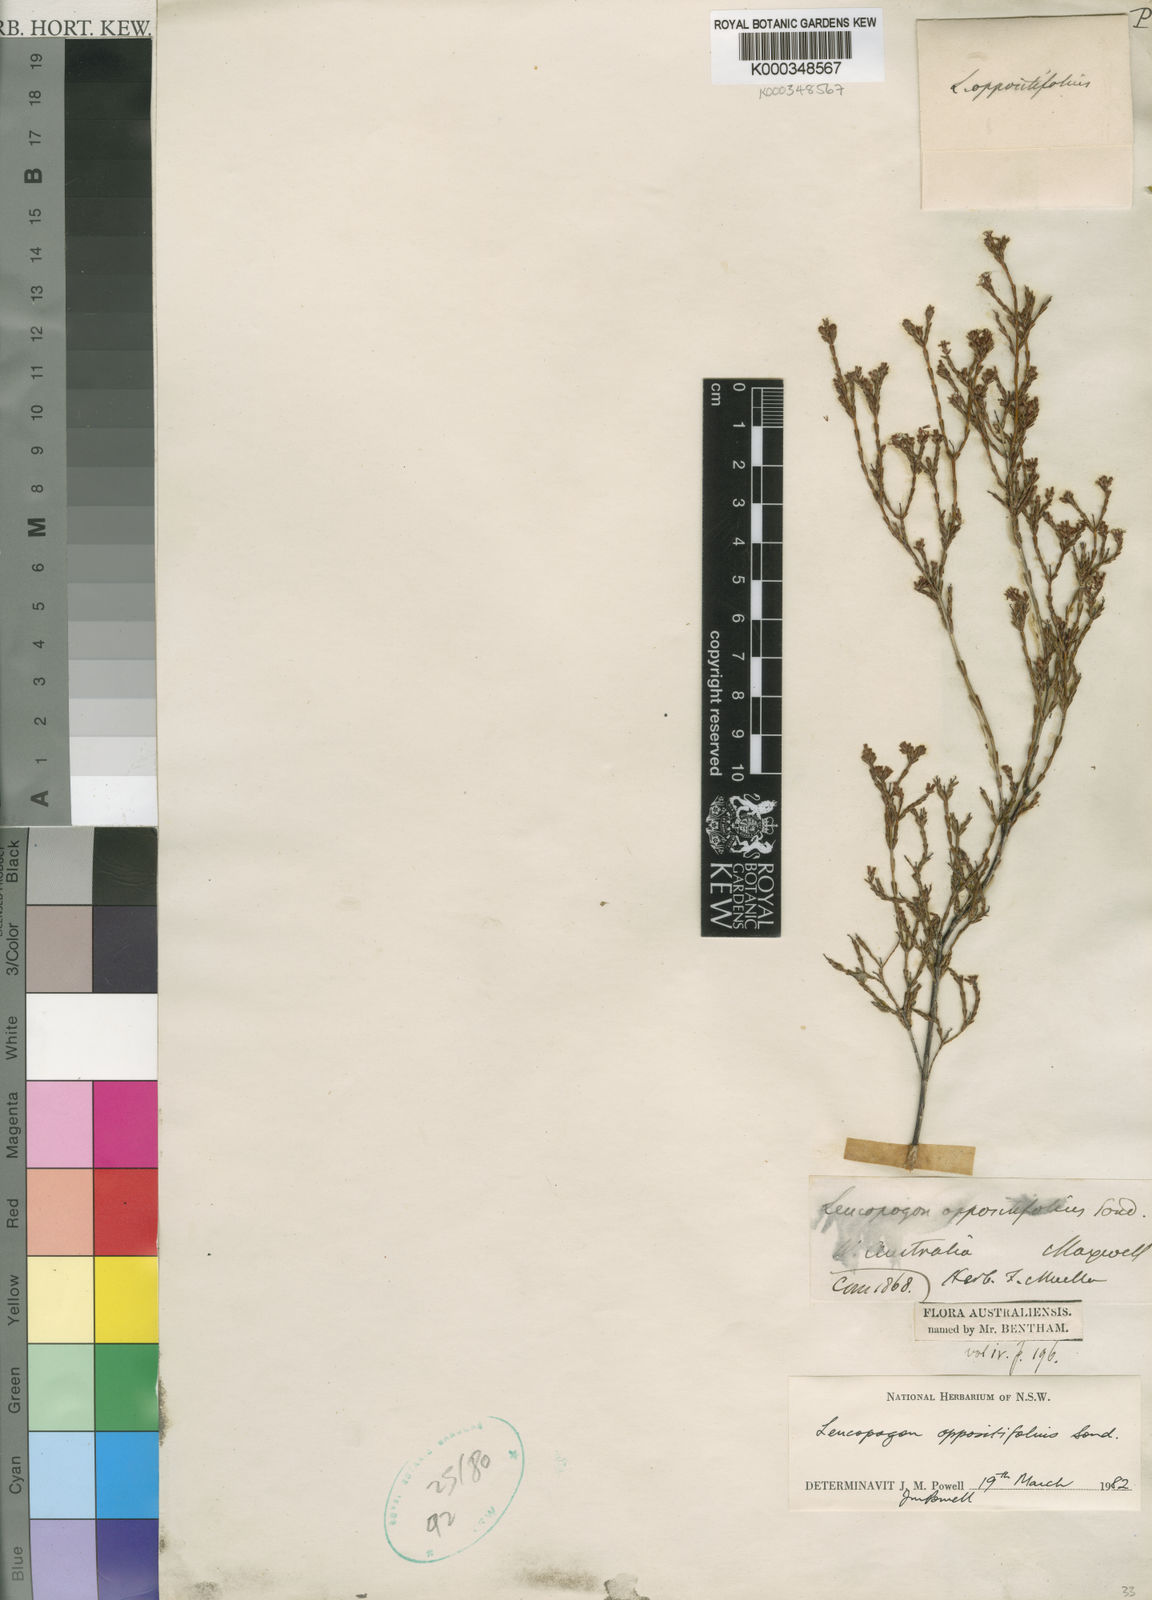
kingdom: Plantae
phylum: Tracheophyta
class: Magnoliopsida
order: Ericales
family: Ericaceae
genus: Leucopogon
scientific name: Leucopogon oppositifolius
